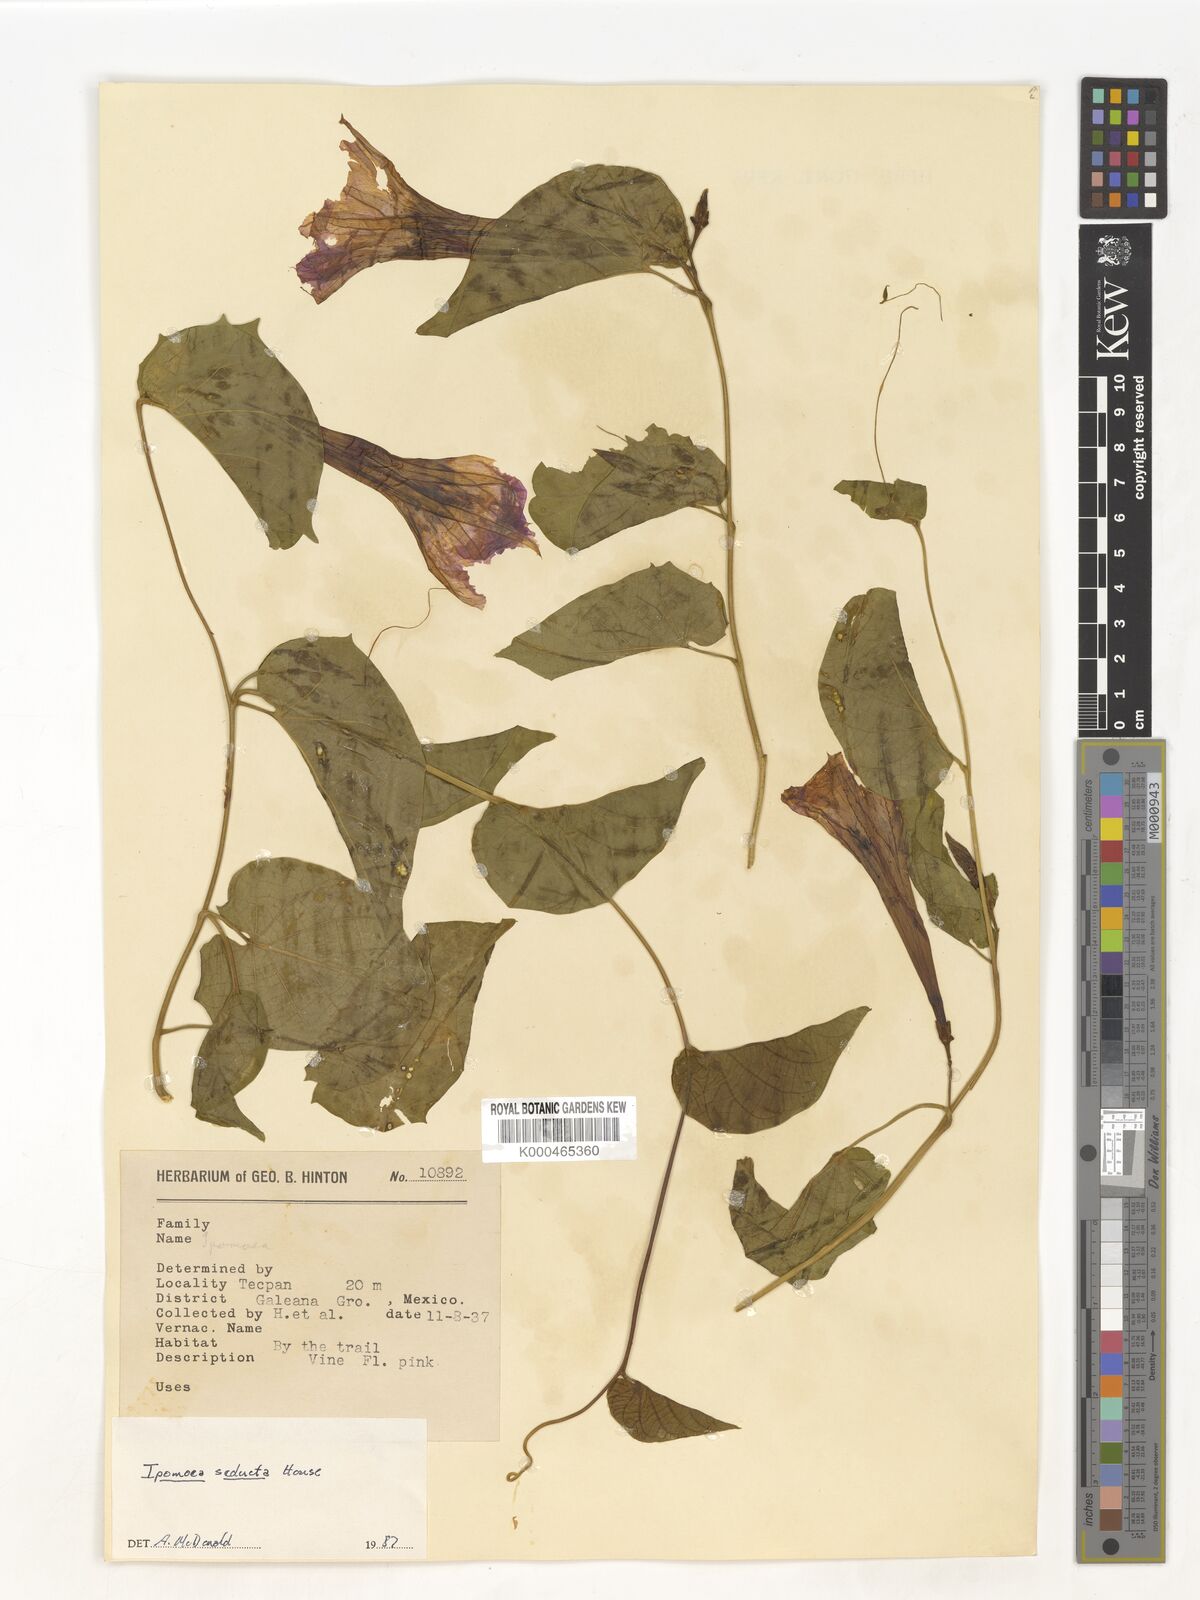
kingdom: Plantae
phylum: Tracheophyta
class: Magnoliopsida
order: Solanales
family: Convolvulaceae
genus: Ipomoea
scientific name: Ipomoea seducta
